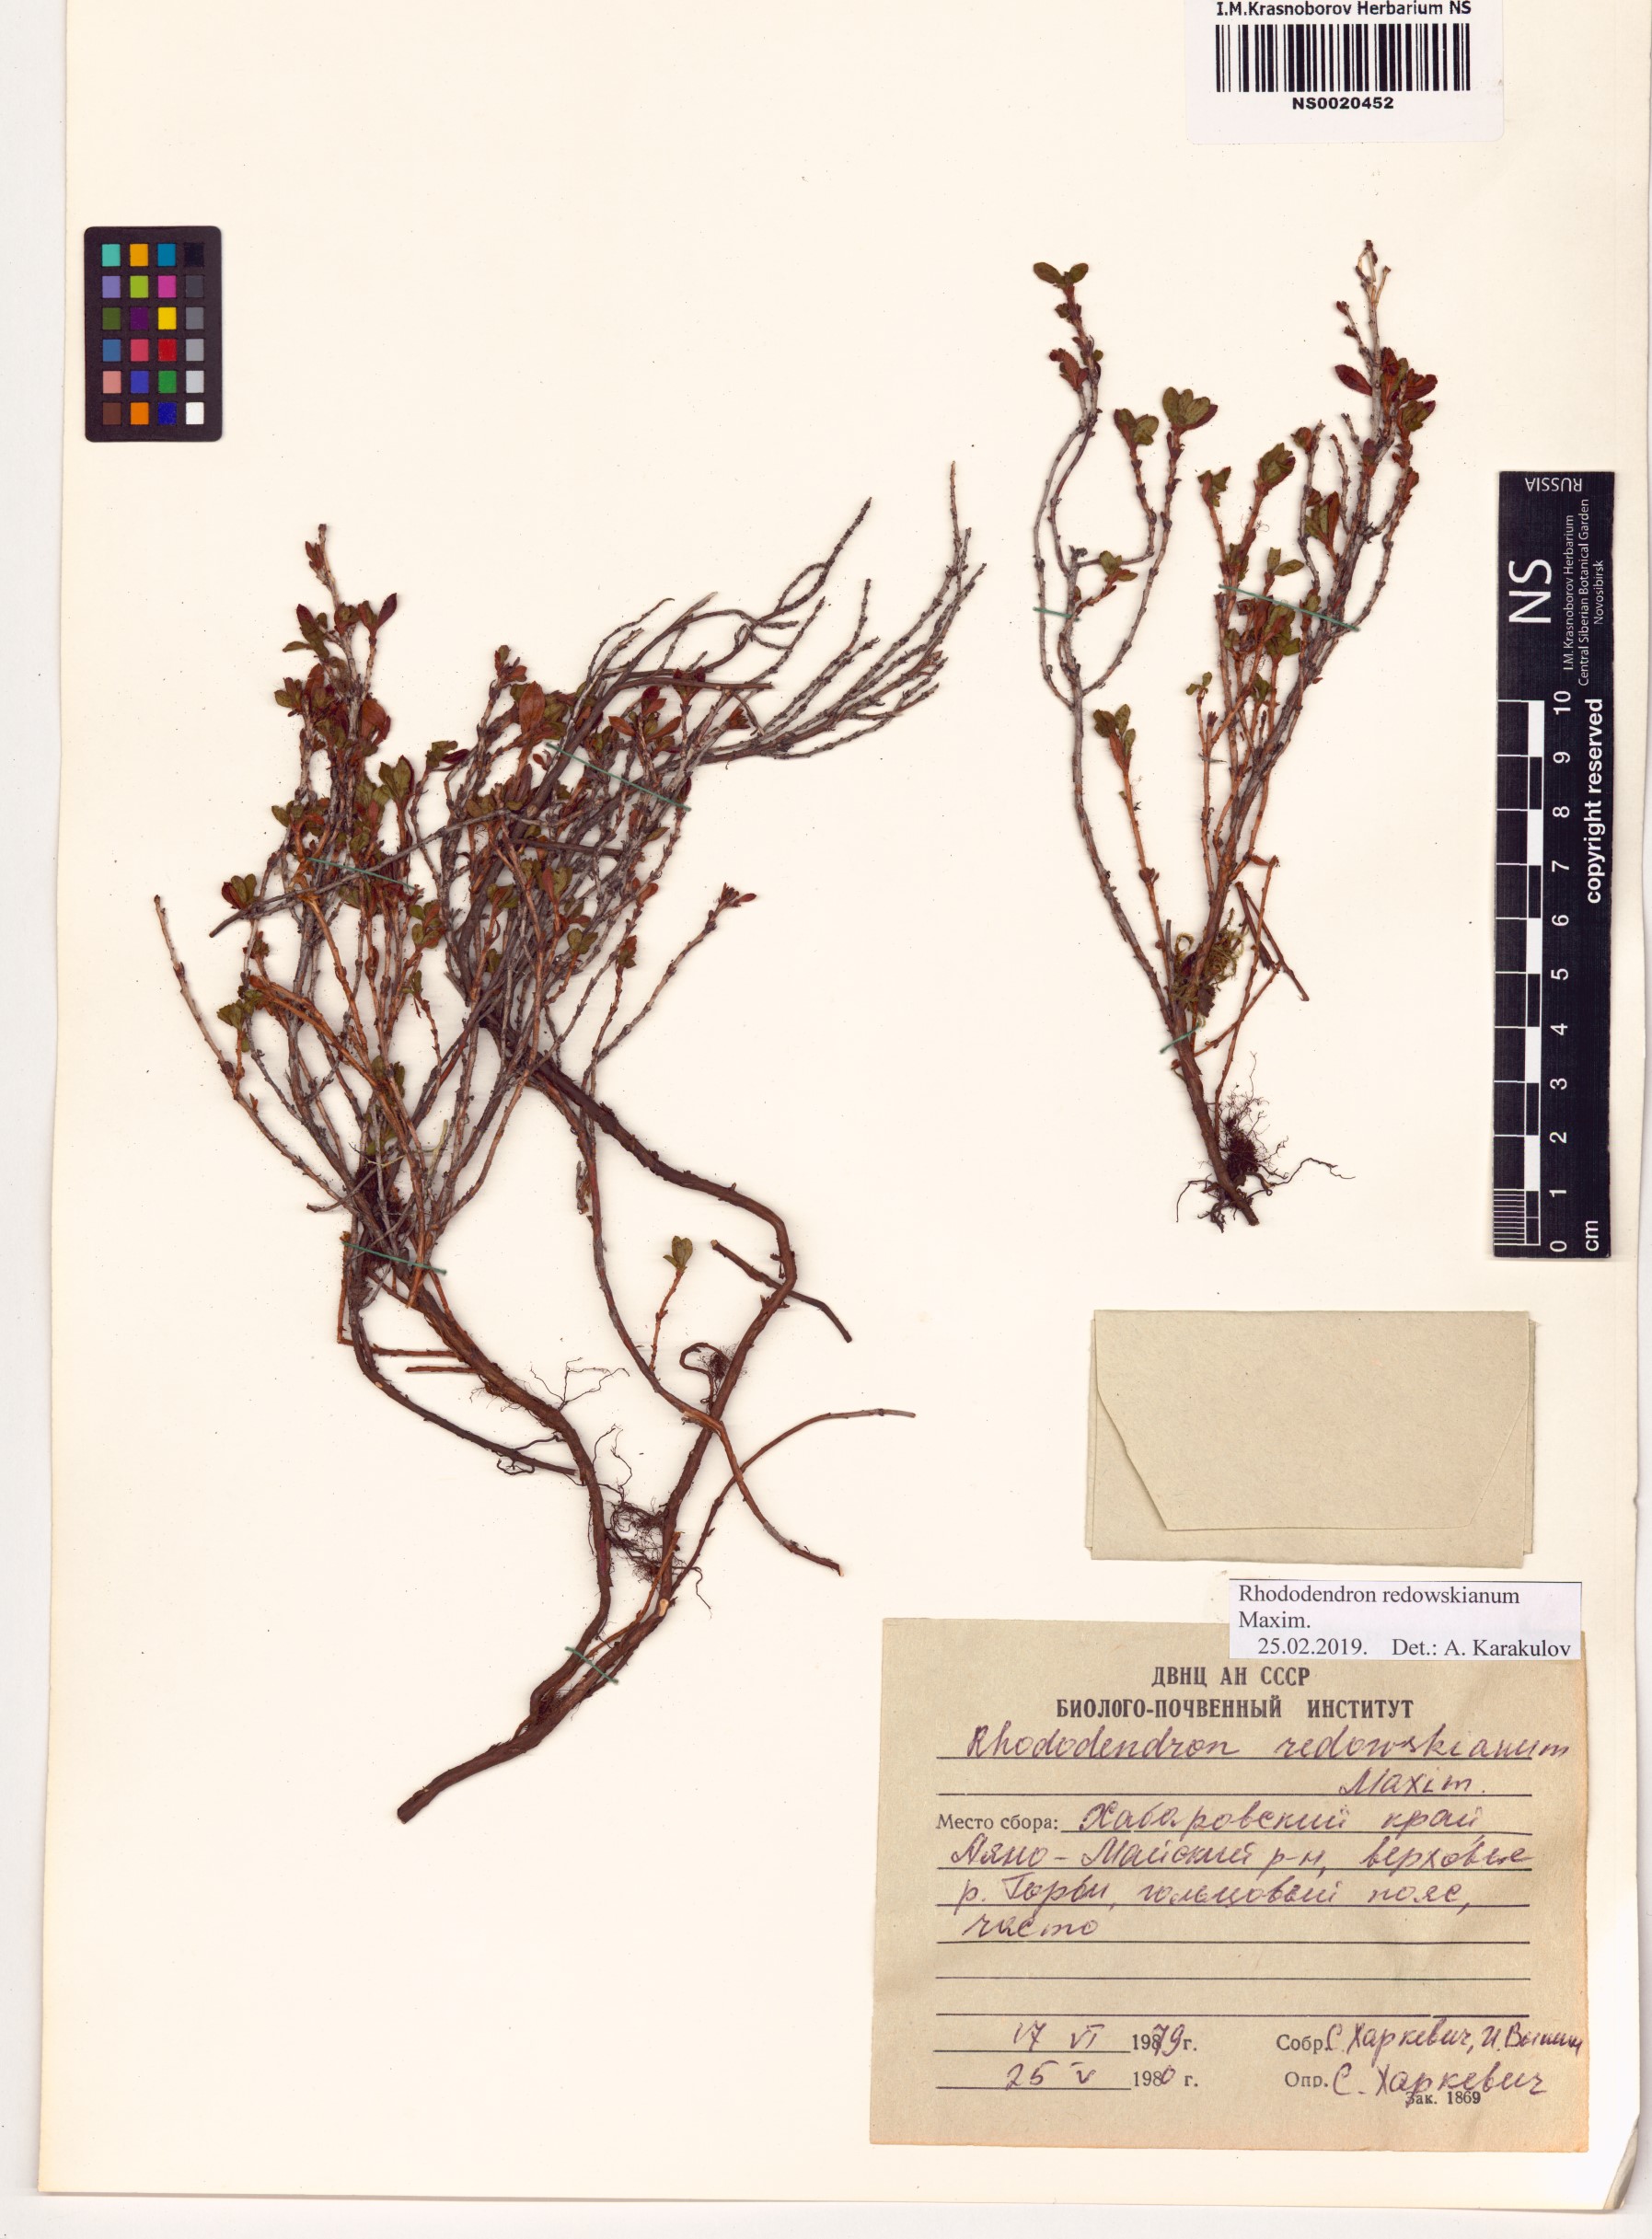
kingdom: Plantae
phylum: Tracheophyta
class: Magnoliopsida
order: Ericales
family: Ericaceae
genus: Rhododendron
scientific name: Rhododendron redowskianum
